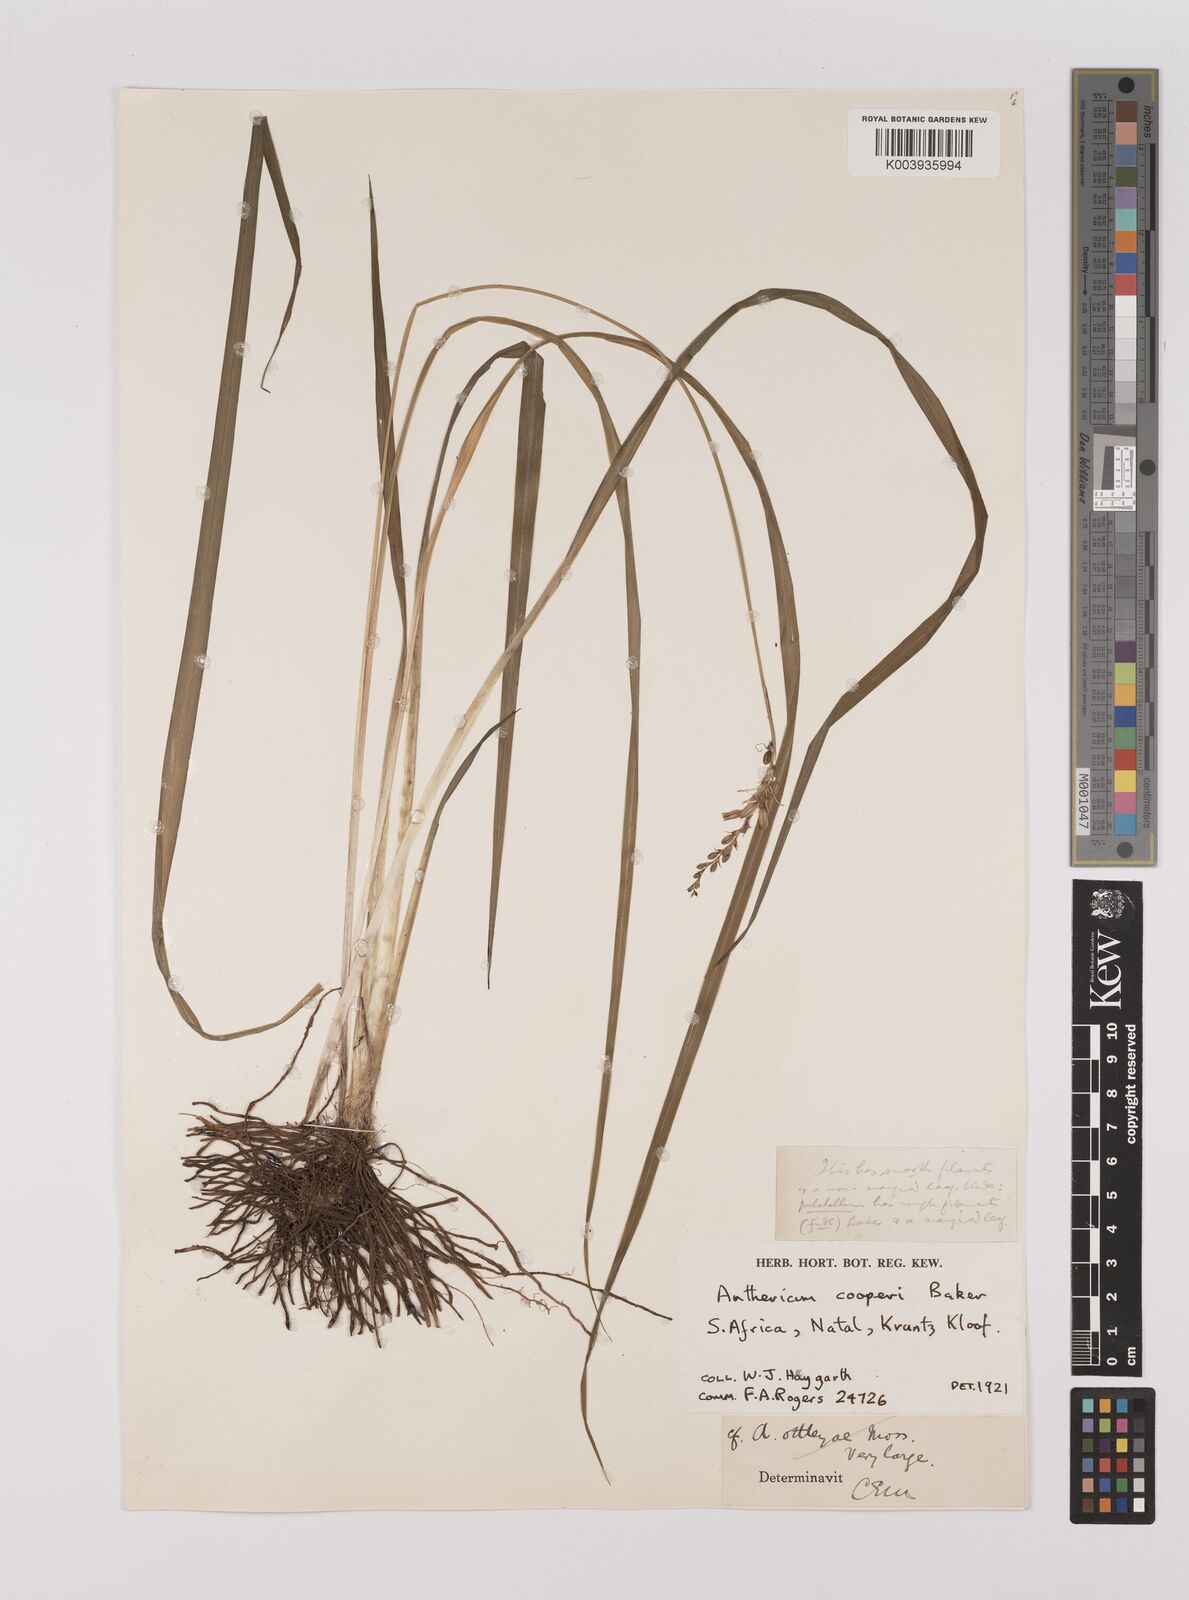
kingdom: Plantae
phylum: Tracheophyta
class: Liliopsida
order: Asparagales
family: Asparagaceae
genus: Chlorophytum
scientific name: Chlorophytum cooperi
